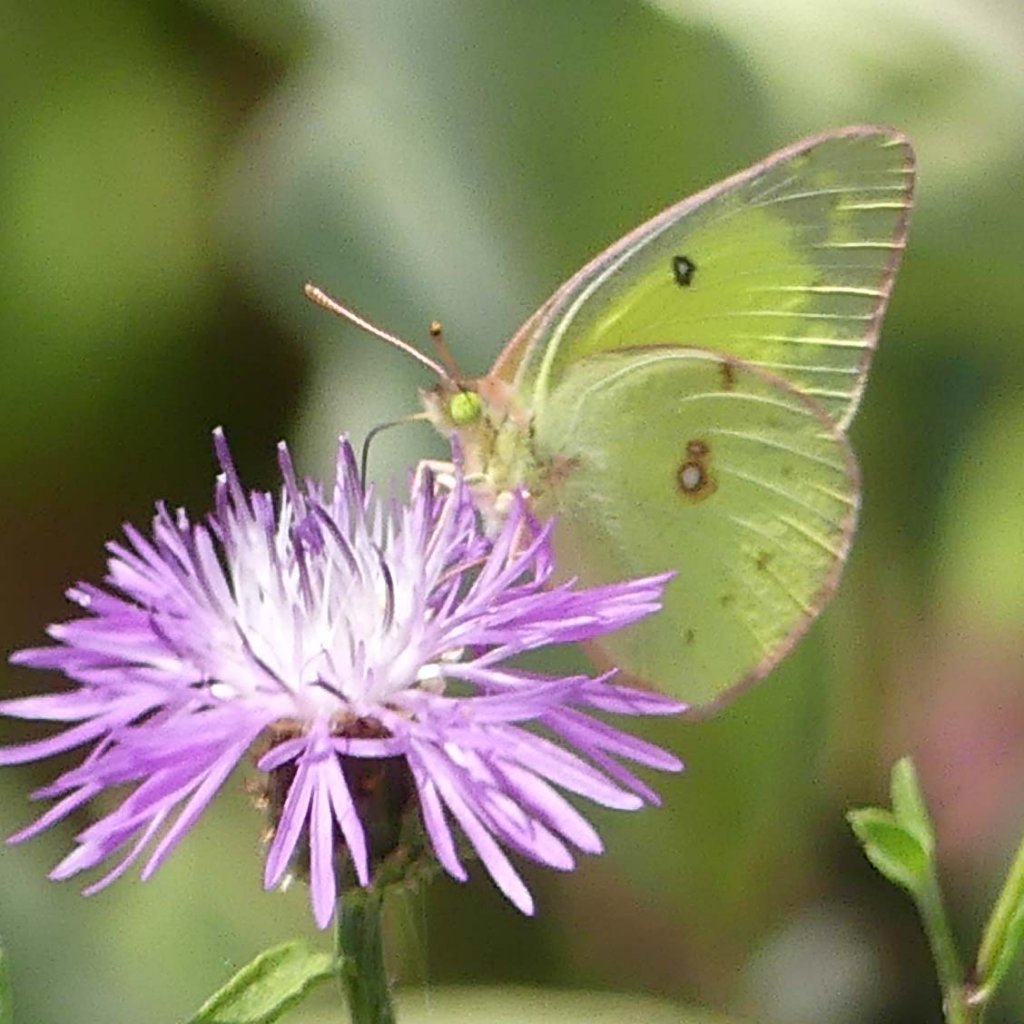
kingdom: Animalia
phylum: Arthropoda
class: Insecta
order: Lepidoptera
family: Pieridae
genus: Colias
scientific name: Colias philodice
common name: Clouded Sulphur
